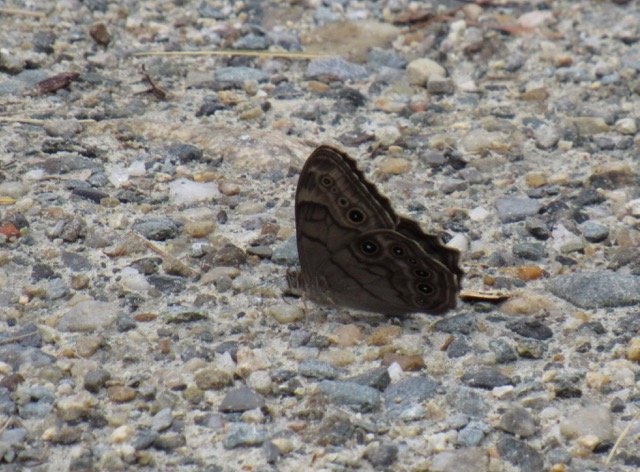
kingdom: Animalia
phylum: Arthropoda
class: Insecta
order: Lepidoptera
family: Nymphalidae
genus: Lethe
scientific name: Lethe anthedon
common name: Northern Pearly-Eye
